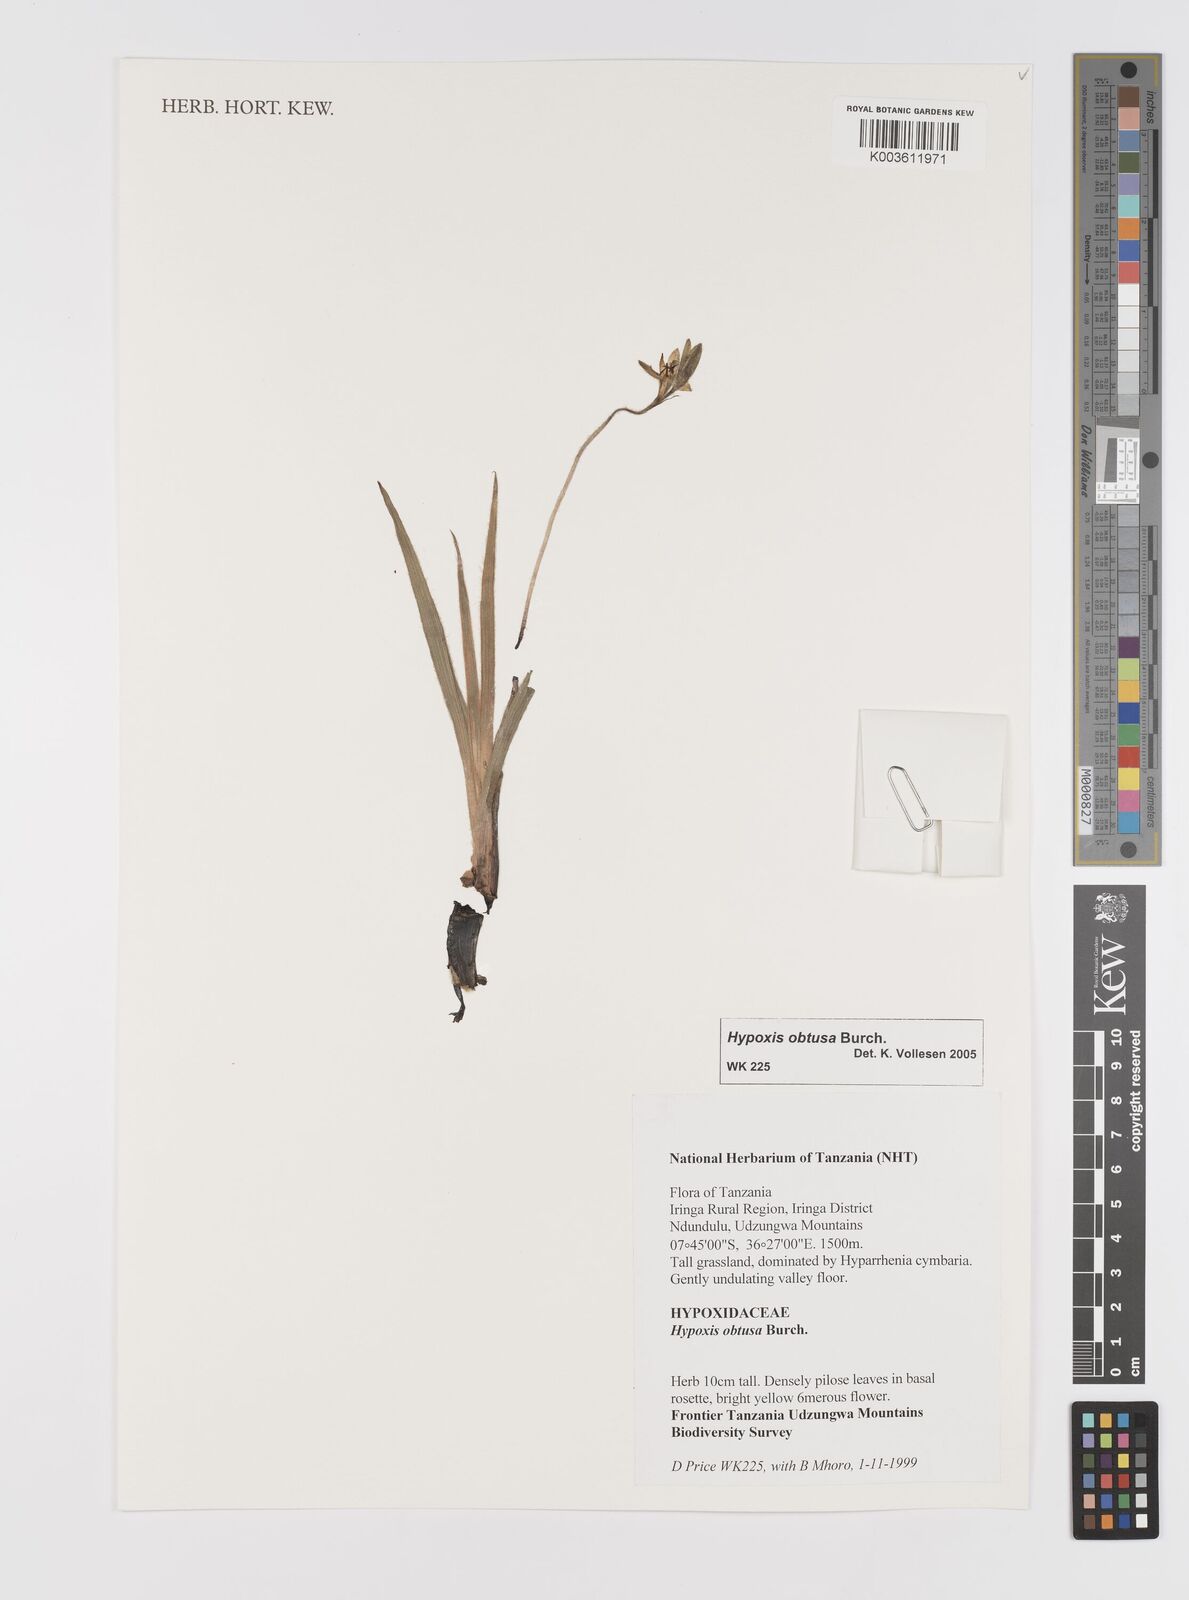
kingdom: Plantae
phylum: Tracheophyta
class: Liliopsida
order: Asparagales
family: Hypoxidaceae
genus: Hypoxis
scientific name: Hypoxis obtusa
